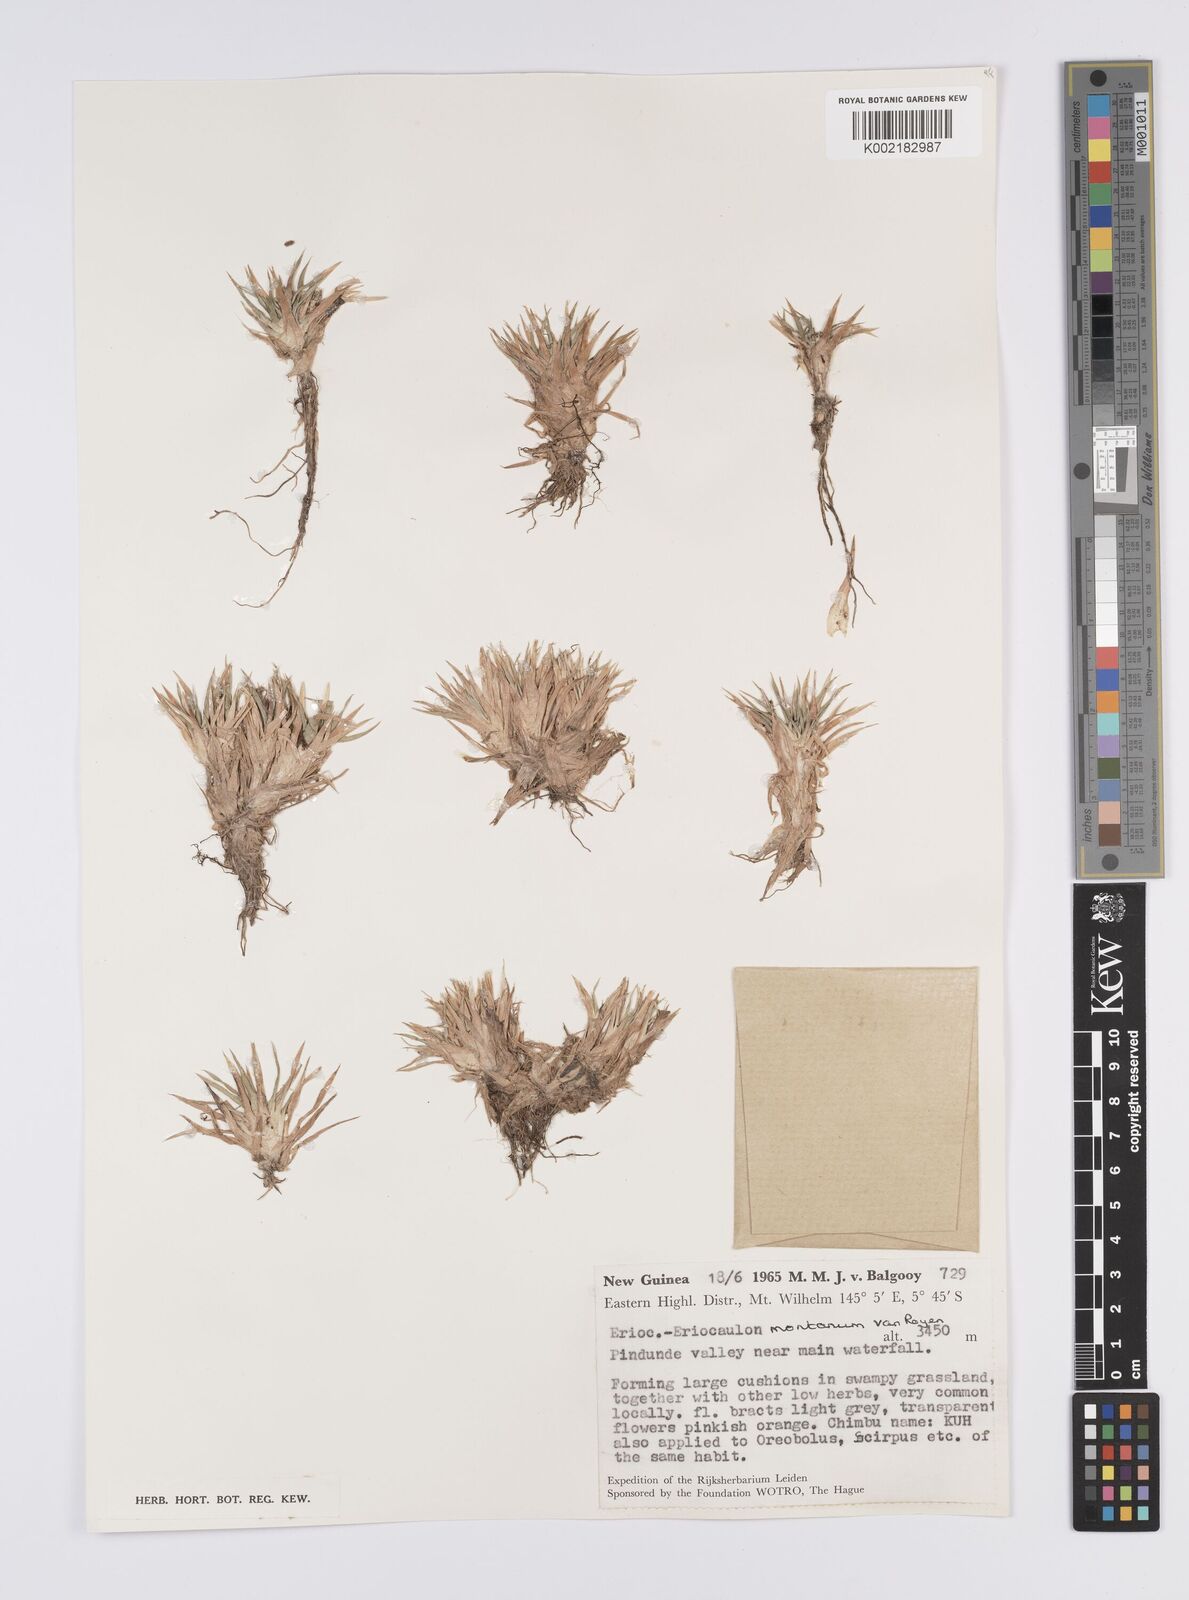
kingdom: Plantae
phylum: Tracheophyta
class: Liliopsida
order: Poales
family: Eriocaulaceae
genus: Eriocaulon
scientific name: Eriocaulon montanum
